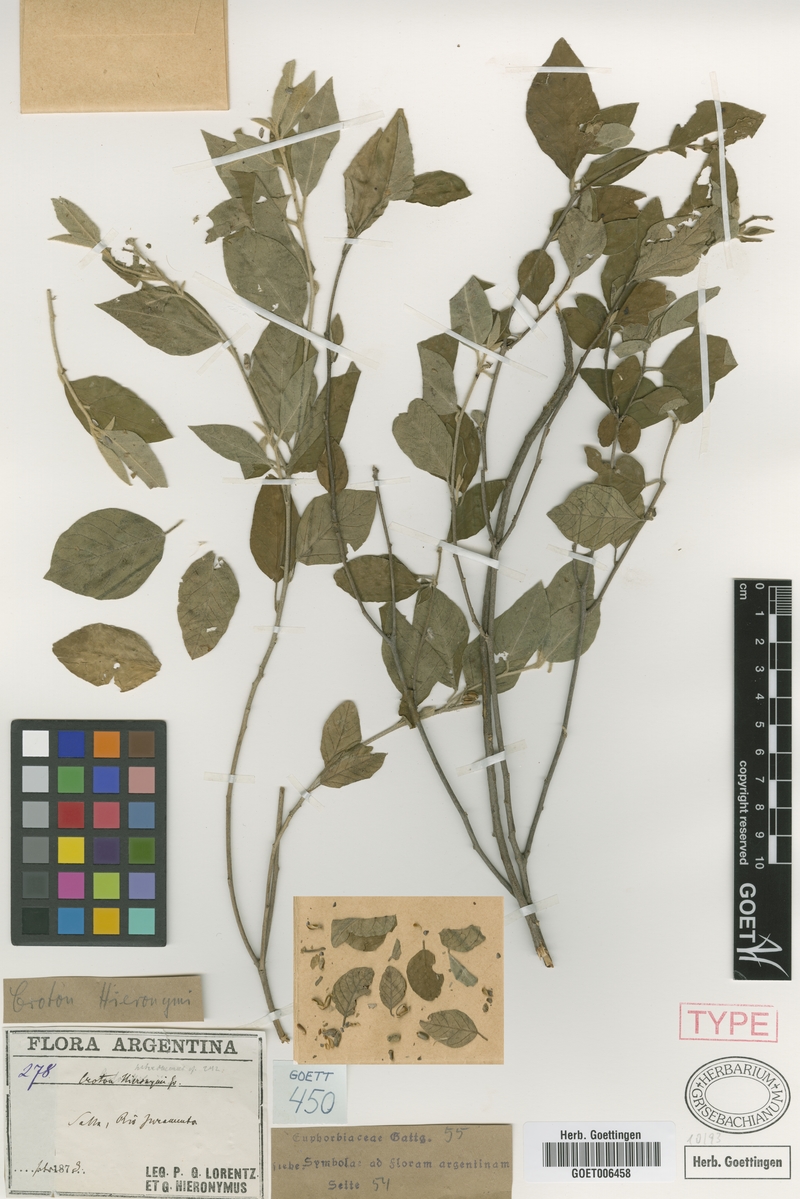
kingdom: Plantae
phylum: Tracheophyta
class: Magnoliopsida
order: Malpighiales
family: Euphorbiaceae
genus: Croton
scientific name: Croton hieronymi
